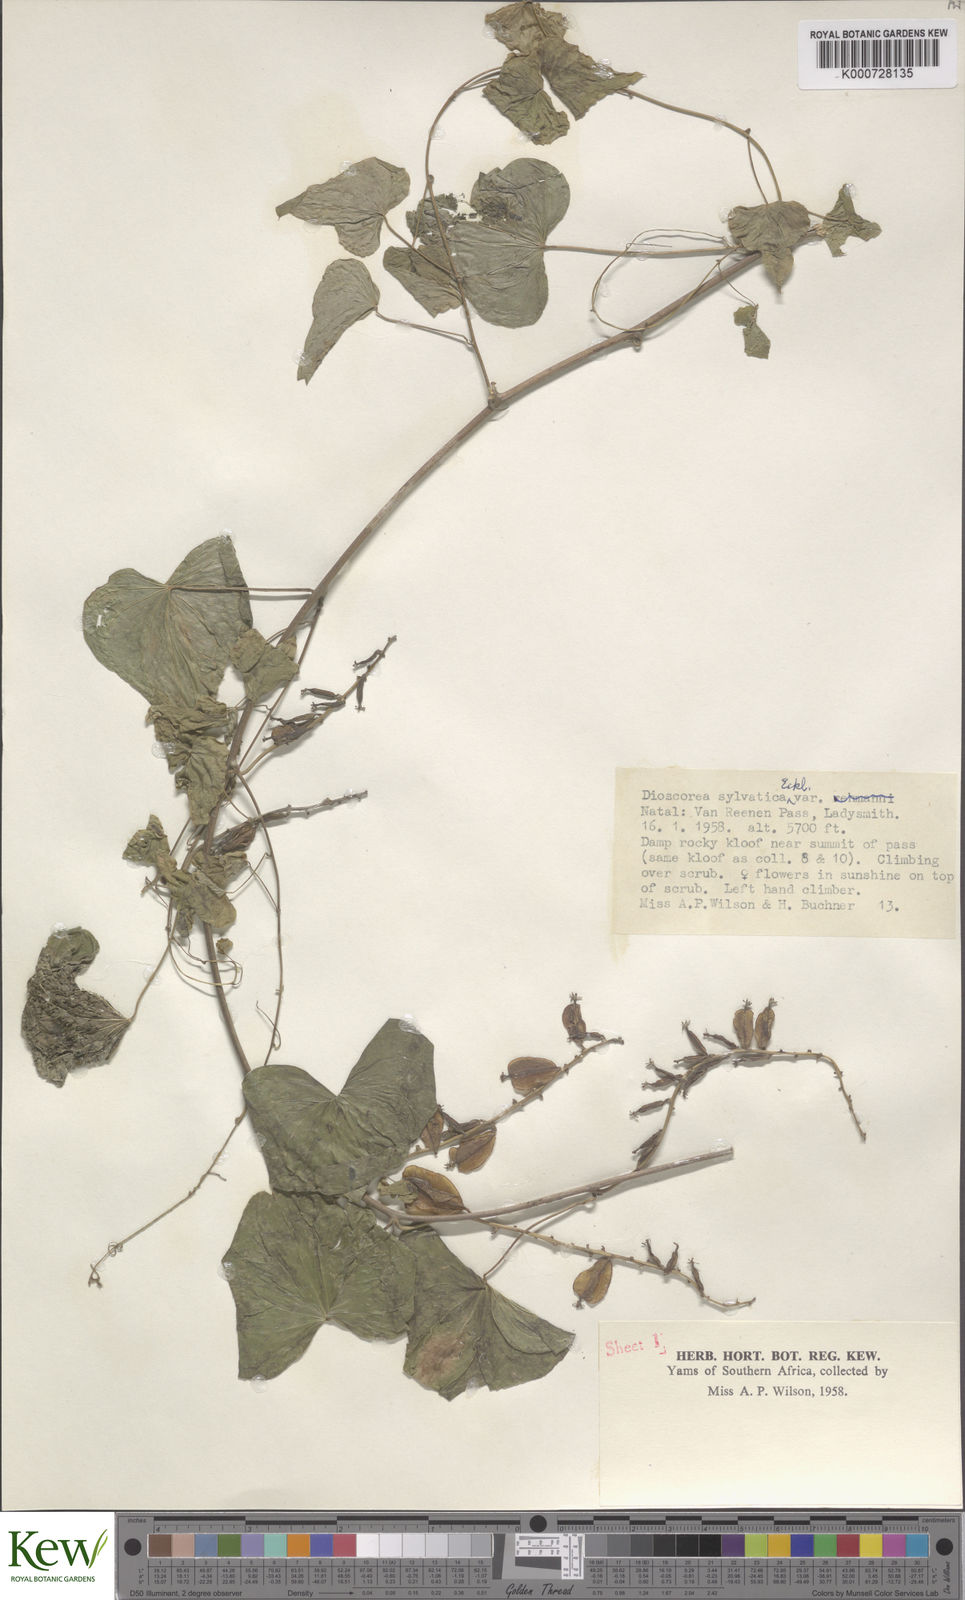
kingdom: Plantae
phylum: Tracheophyta
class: Liliopsida
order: Dioscoreales
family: Dioscoreaceae
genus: Dioscorea
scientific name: Dioscorea sylvatica
